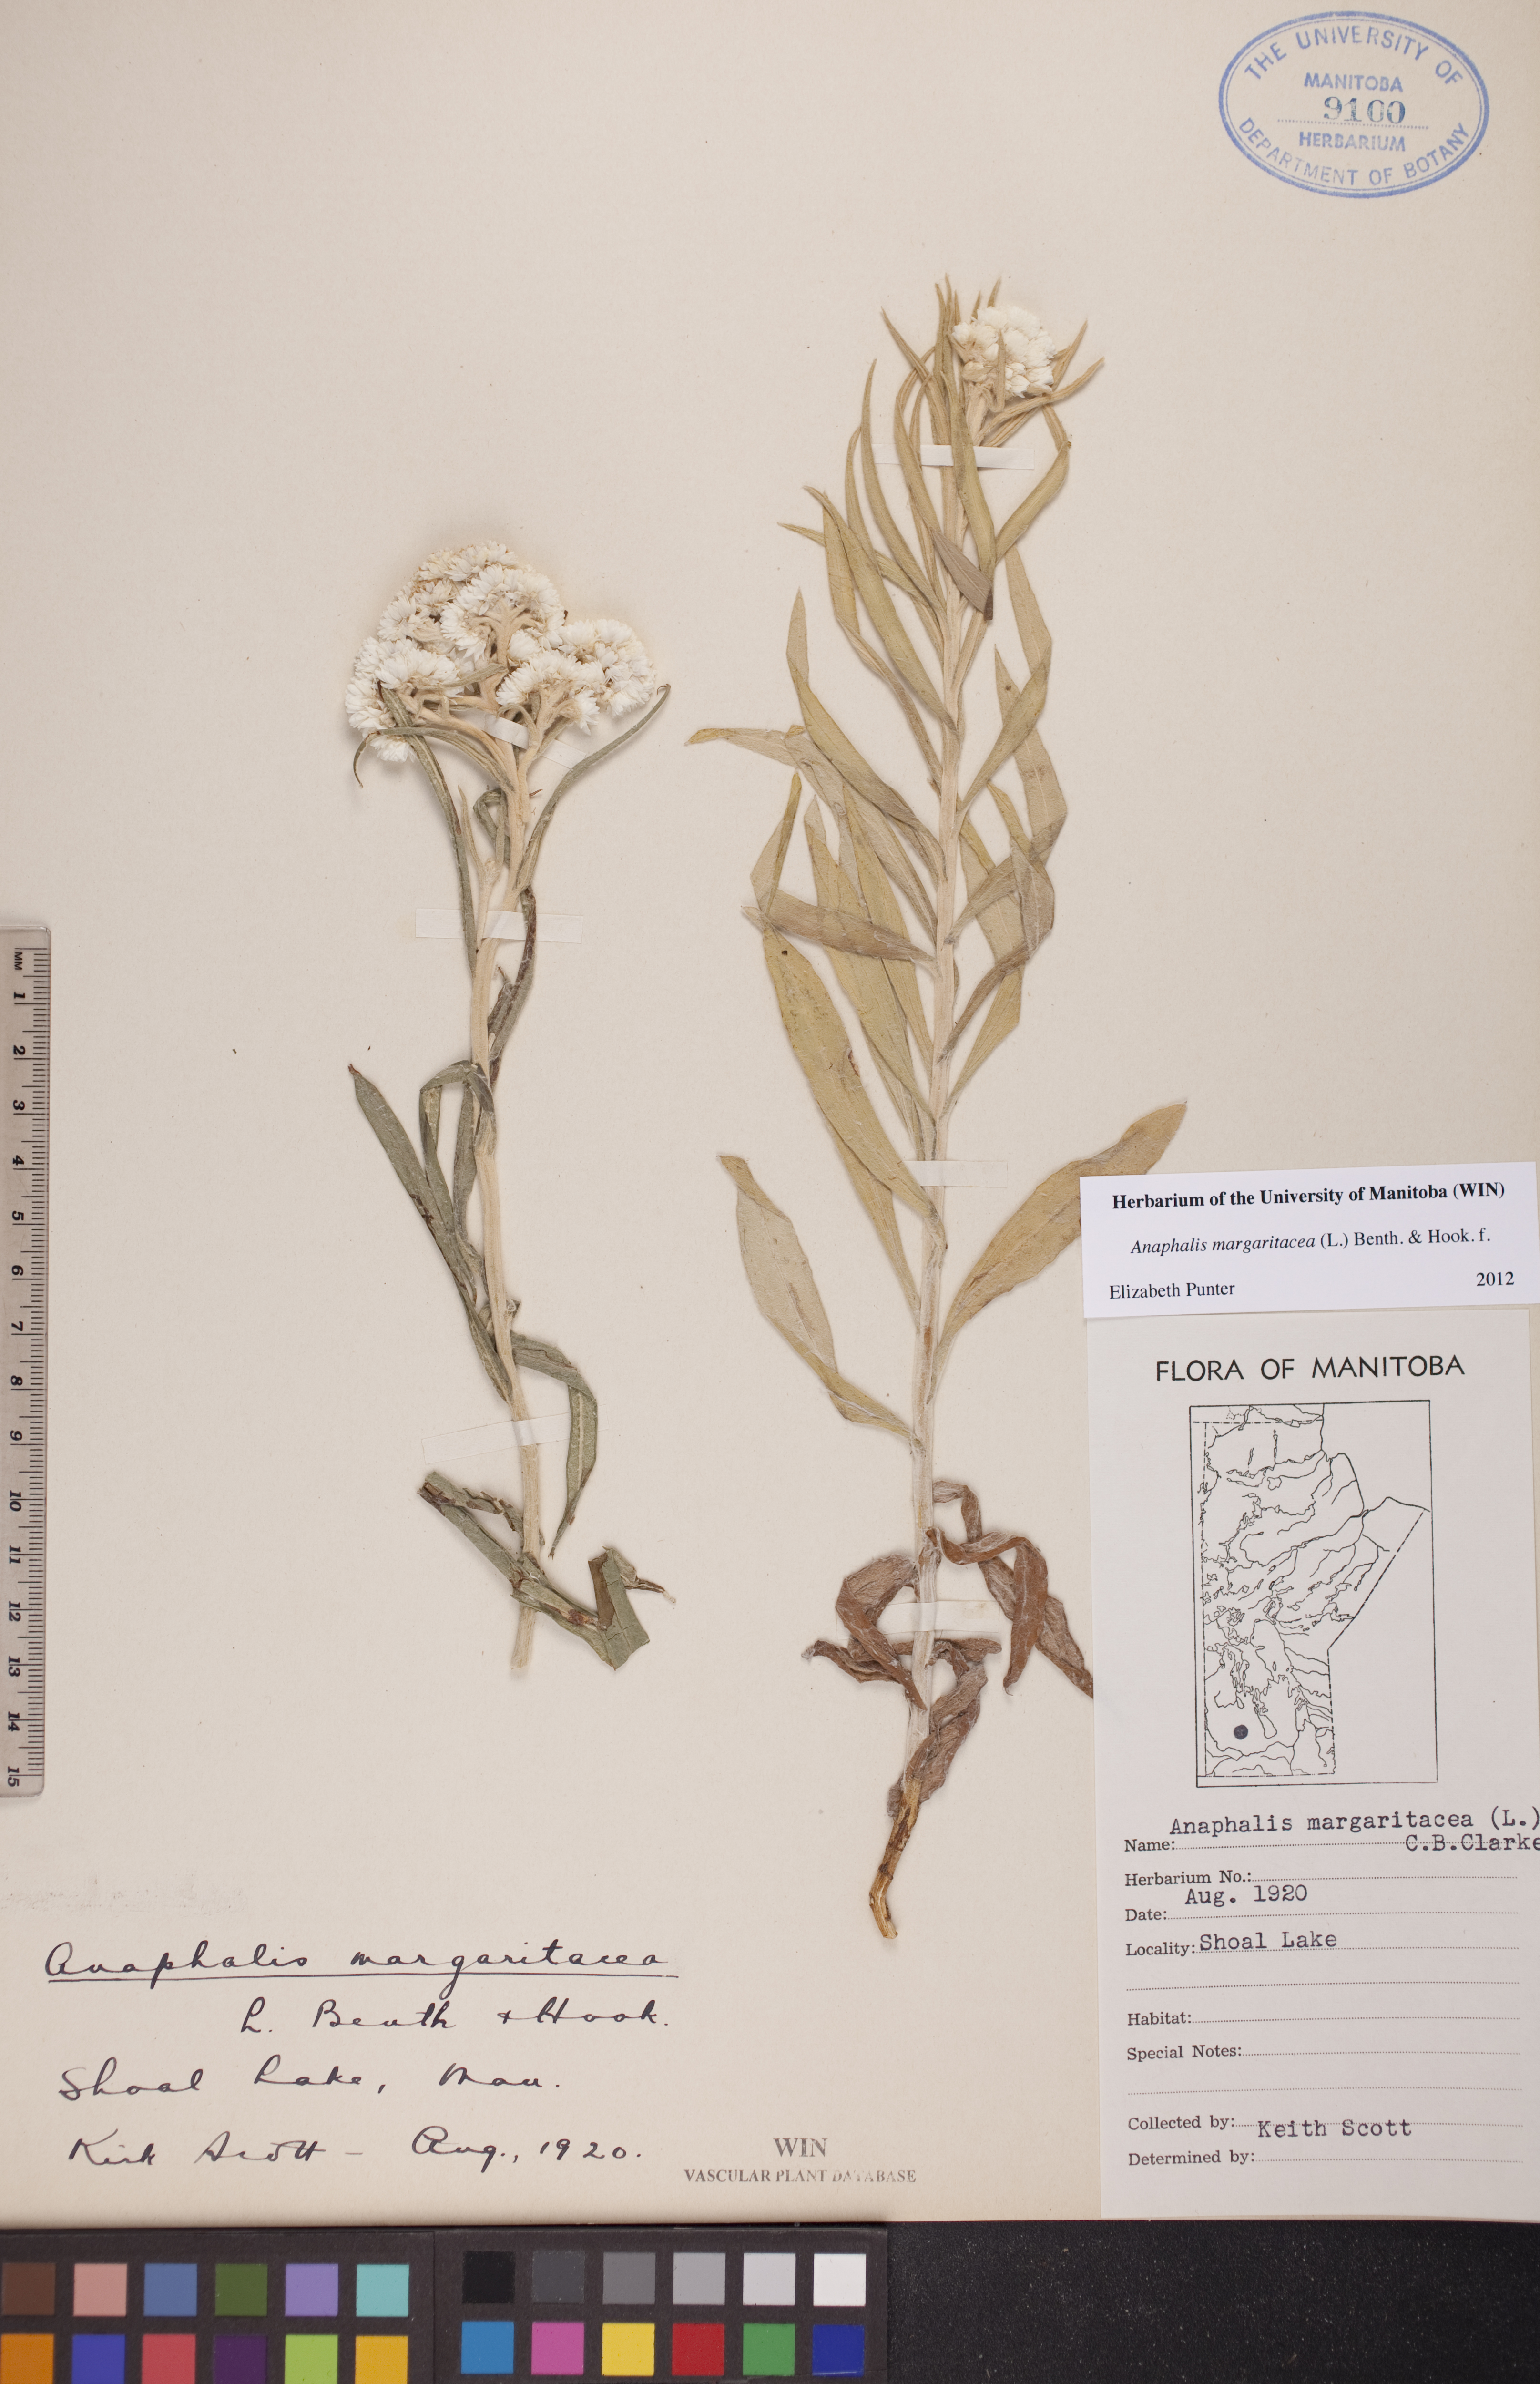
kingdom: Plantae
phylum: Tracheophyta
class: Magnoliopsida
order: Asterales
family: Asteraceae
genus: Anaphalis
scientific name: Anaphalis margaritacea
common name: Pearly everlasting
